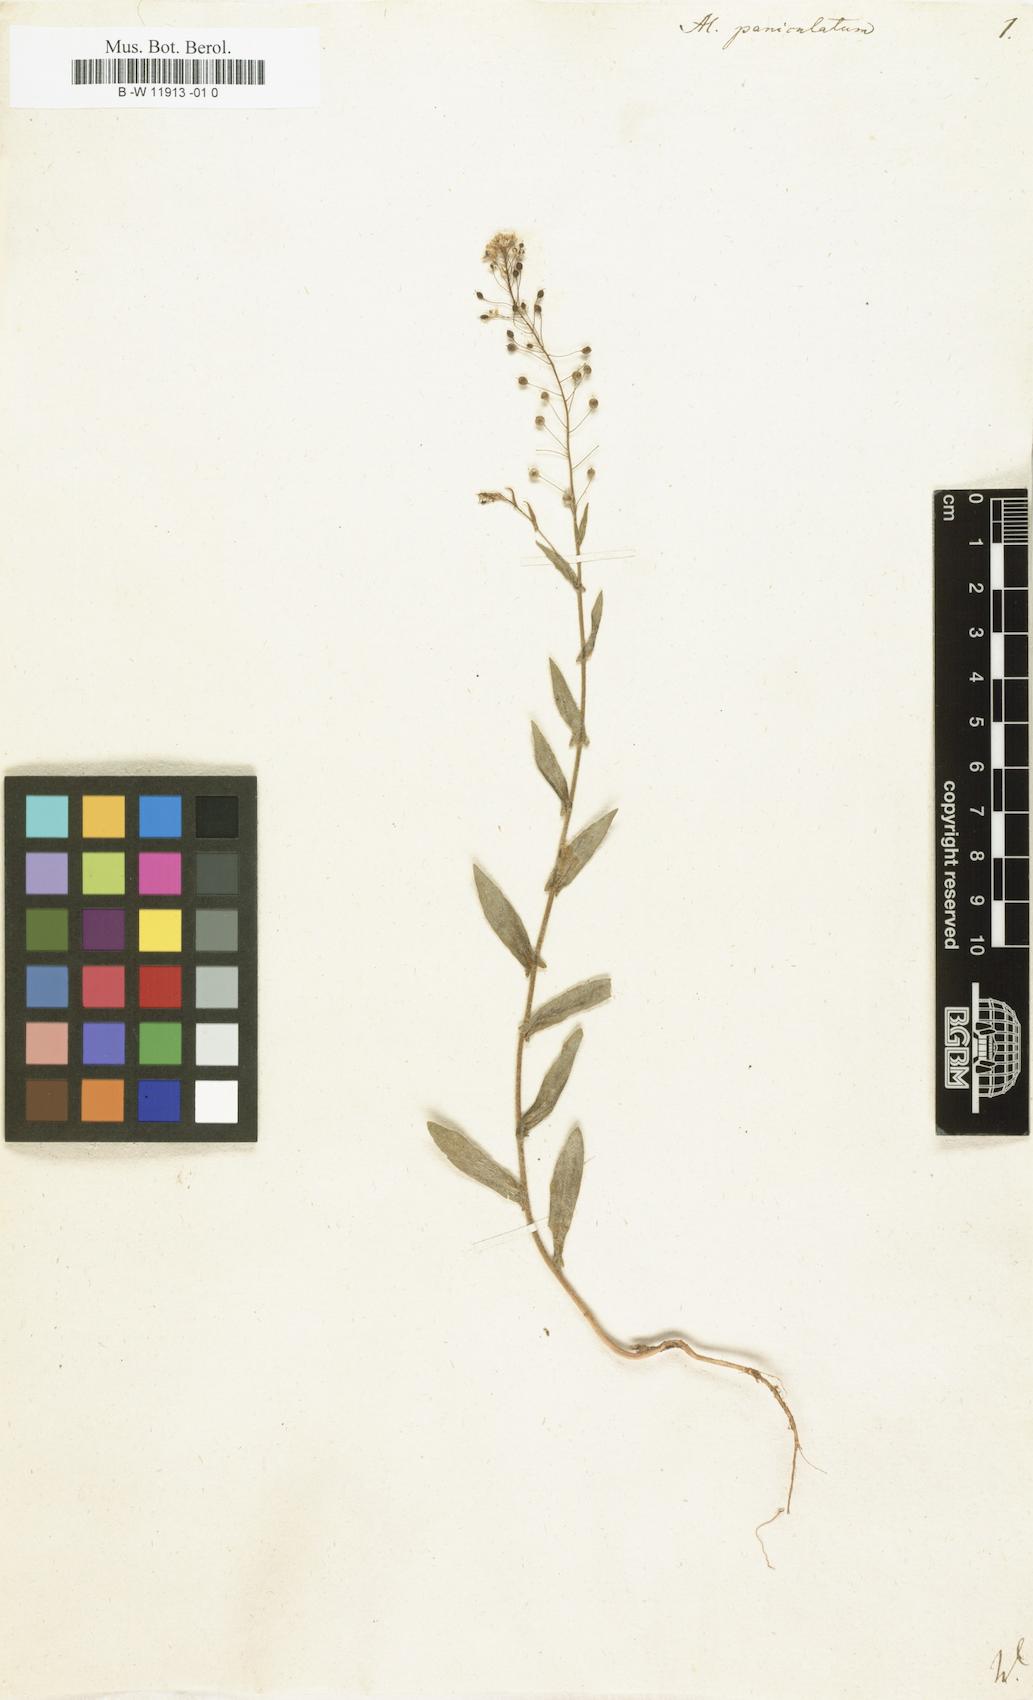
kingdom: Plantae
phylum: Tracheophyta
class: Magnoliopsida
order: Brassicales
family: Brassicaceae
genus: Lutzia
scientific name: Lutzia cretica
